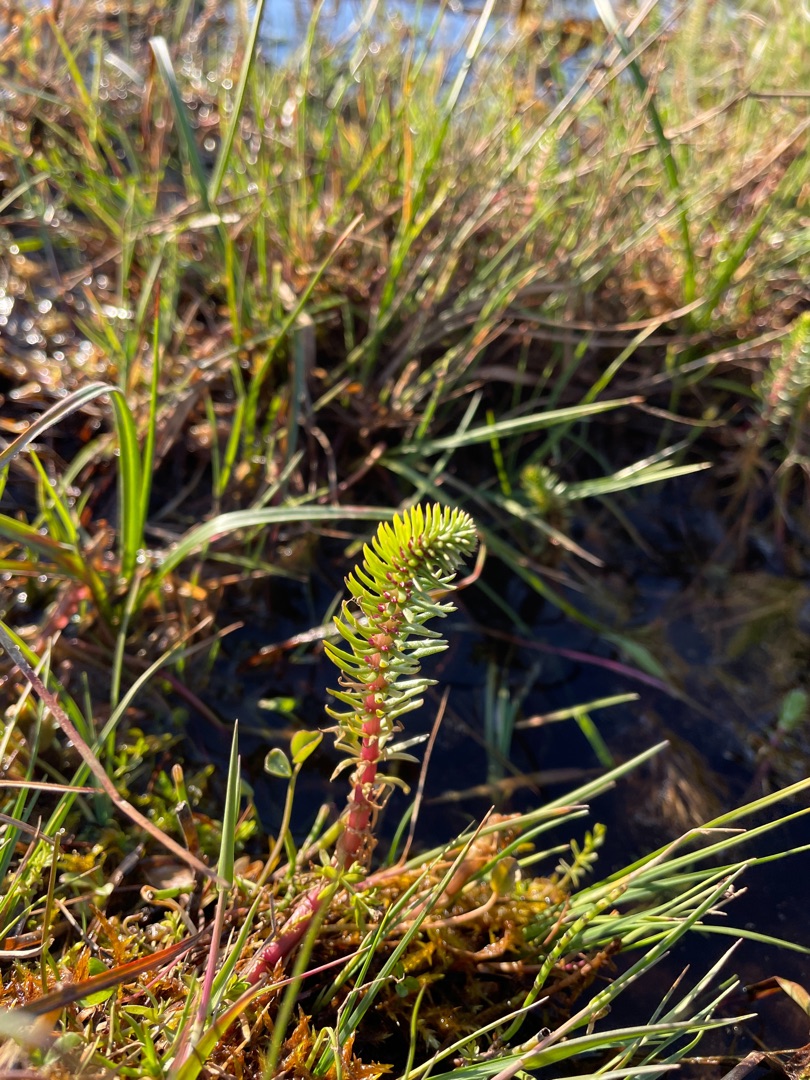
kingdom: Plantae
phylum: Tracheophyta
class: Magnoliopsida
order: Lamiales
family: Plantaginaceae
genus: Hippuris
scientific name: Hippuris vulgaris
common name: Vandspir
